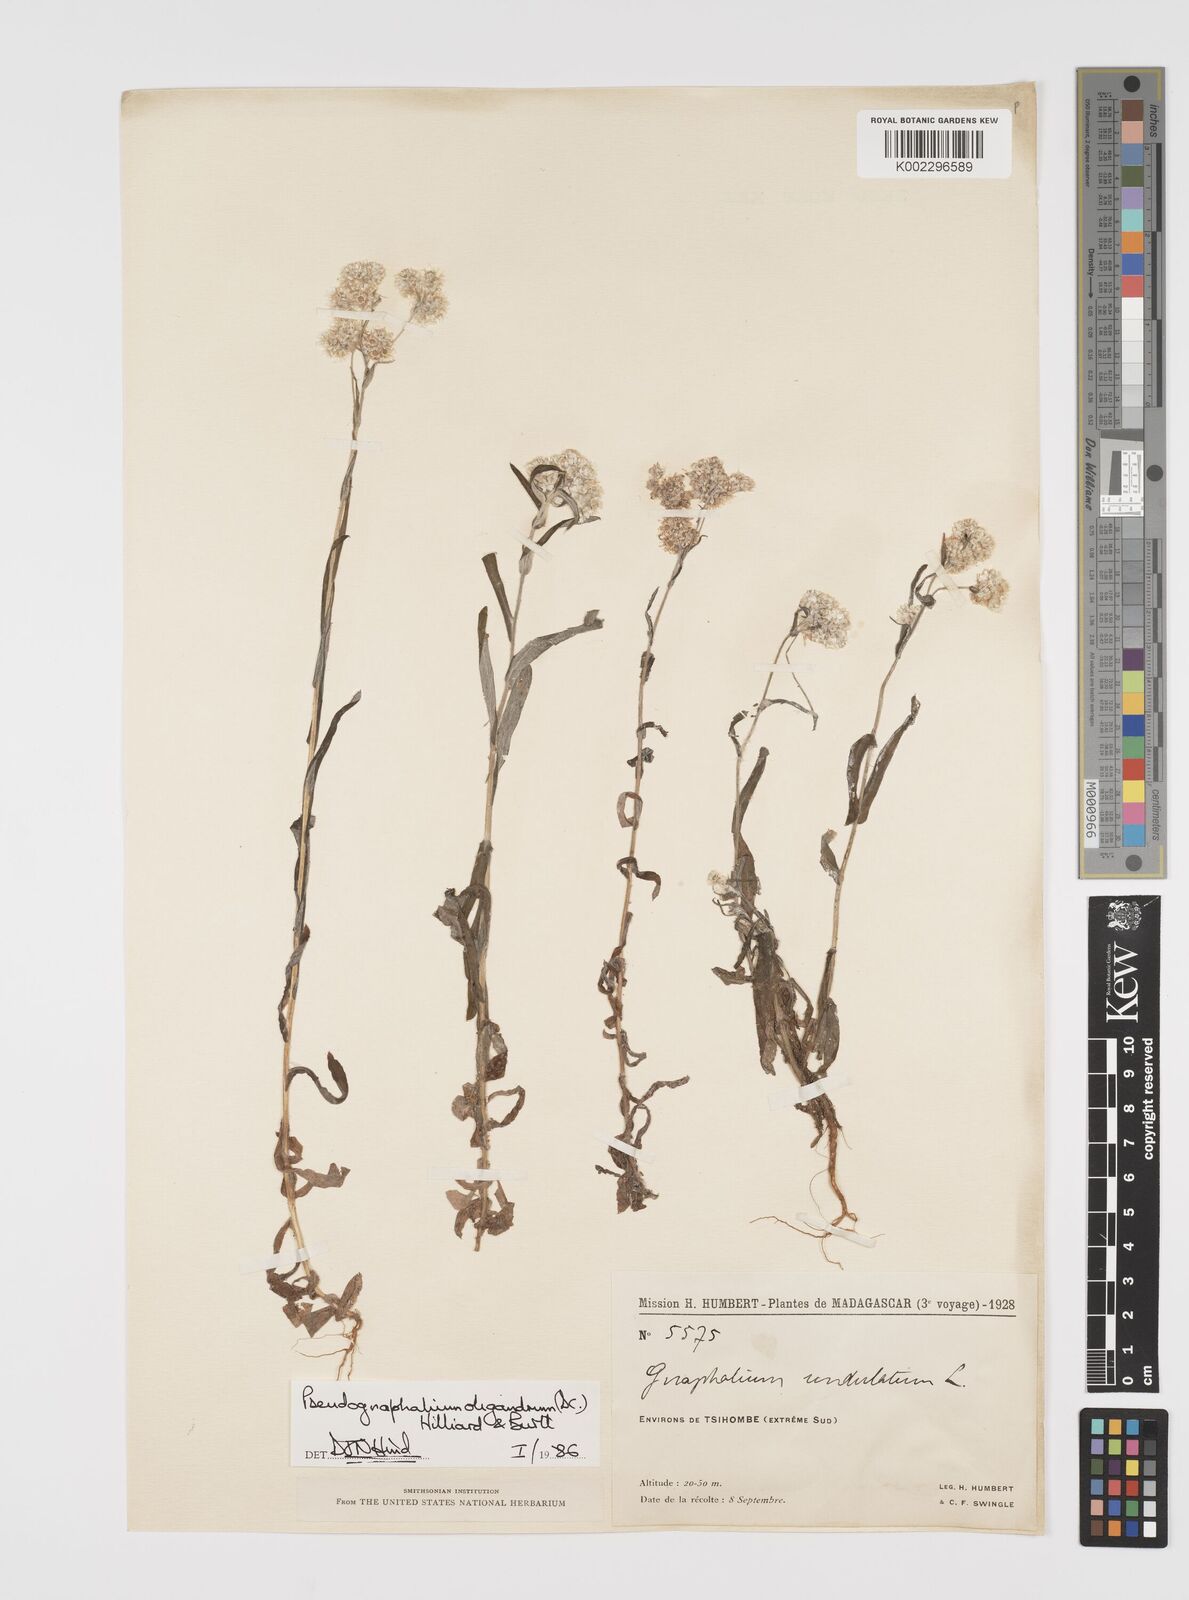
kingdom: Plantae
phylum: Tracheophyta
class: Magnoliopsida
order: Asterales
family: Asteraceae
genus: Pseudognaphalium
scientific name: Pseudognaphalium oligandrum
